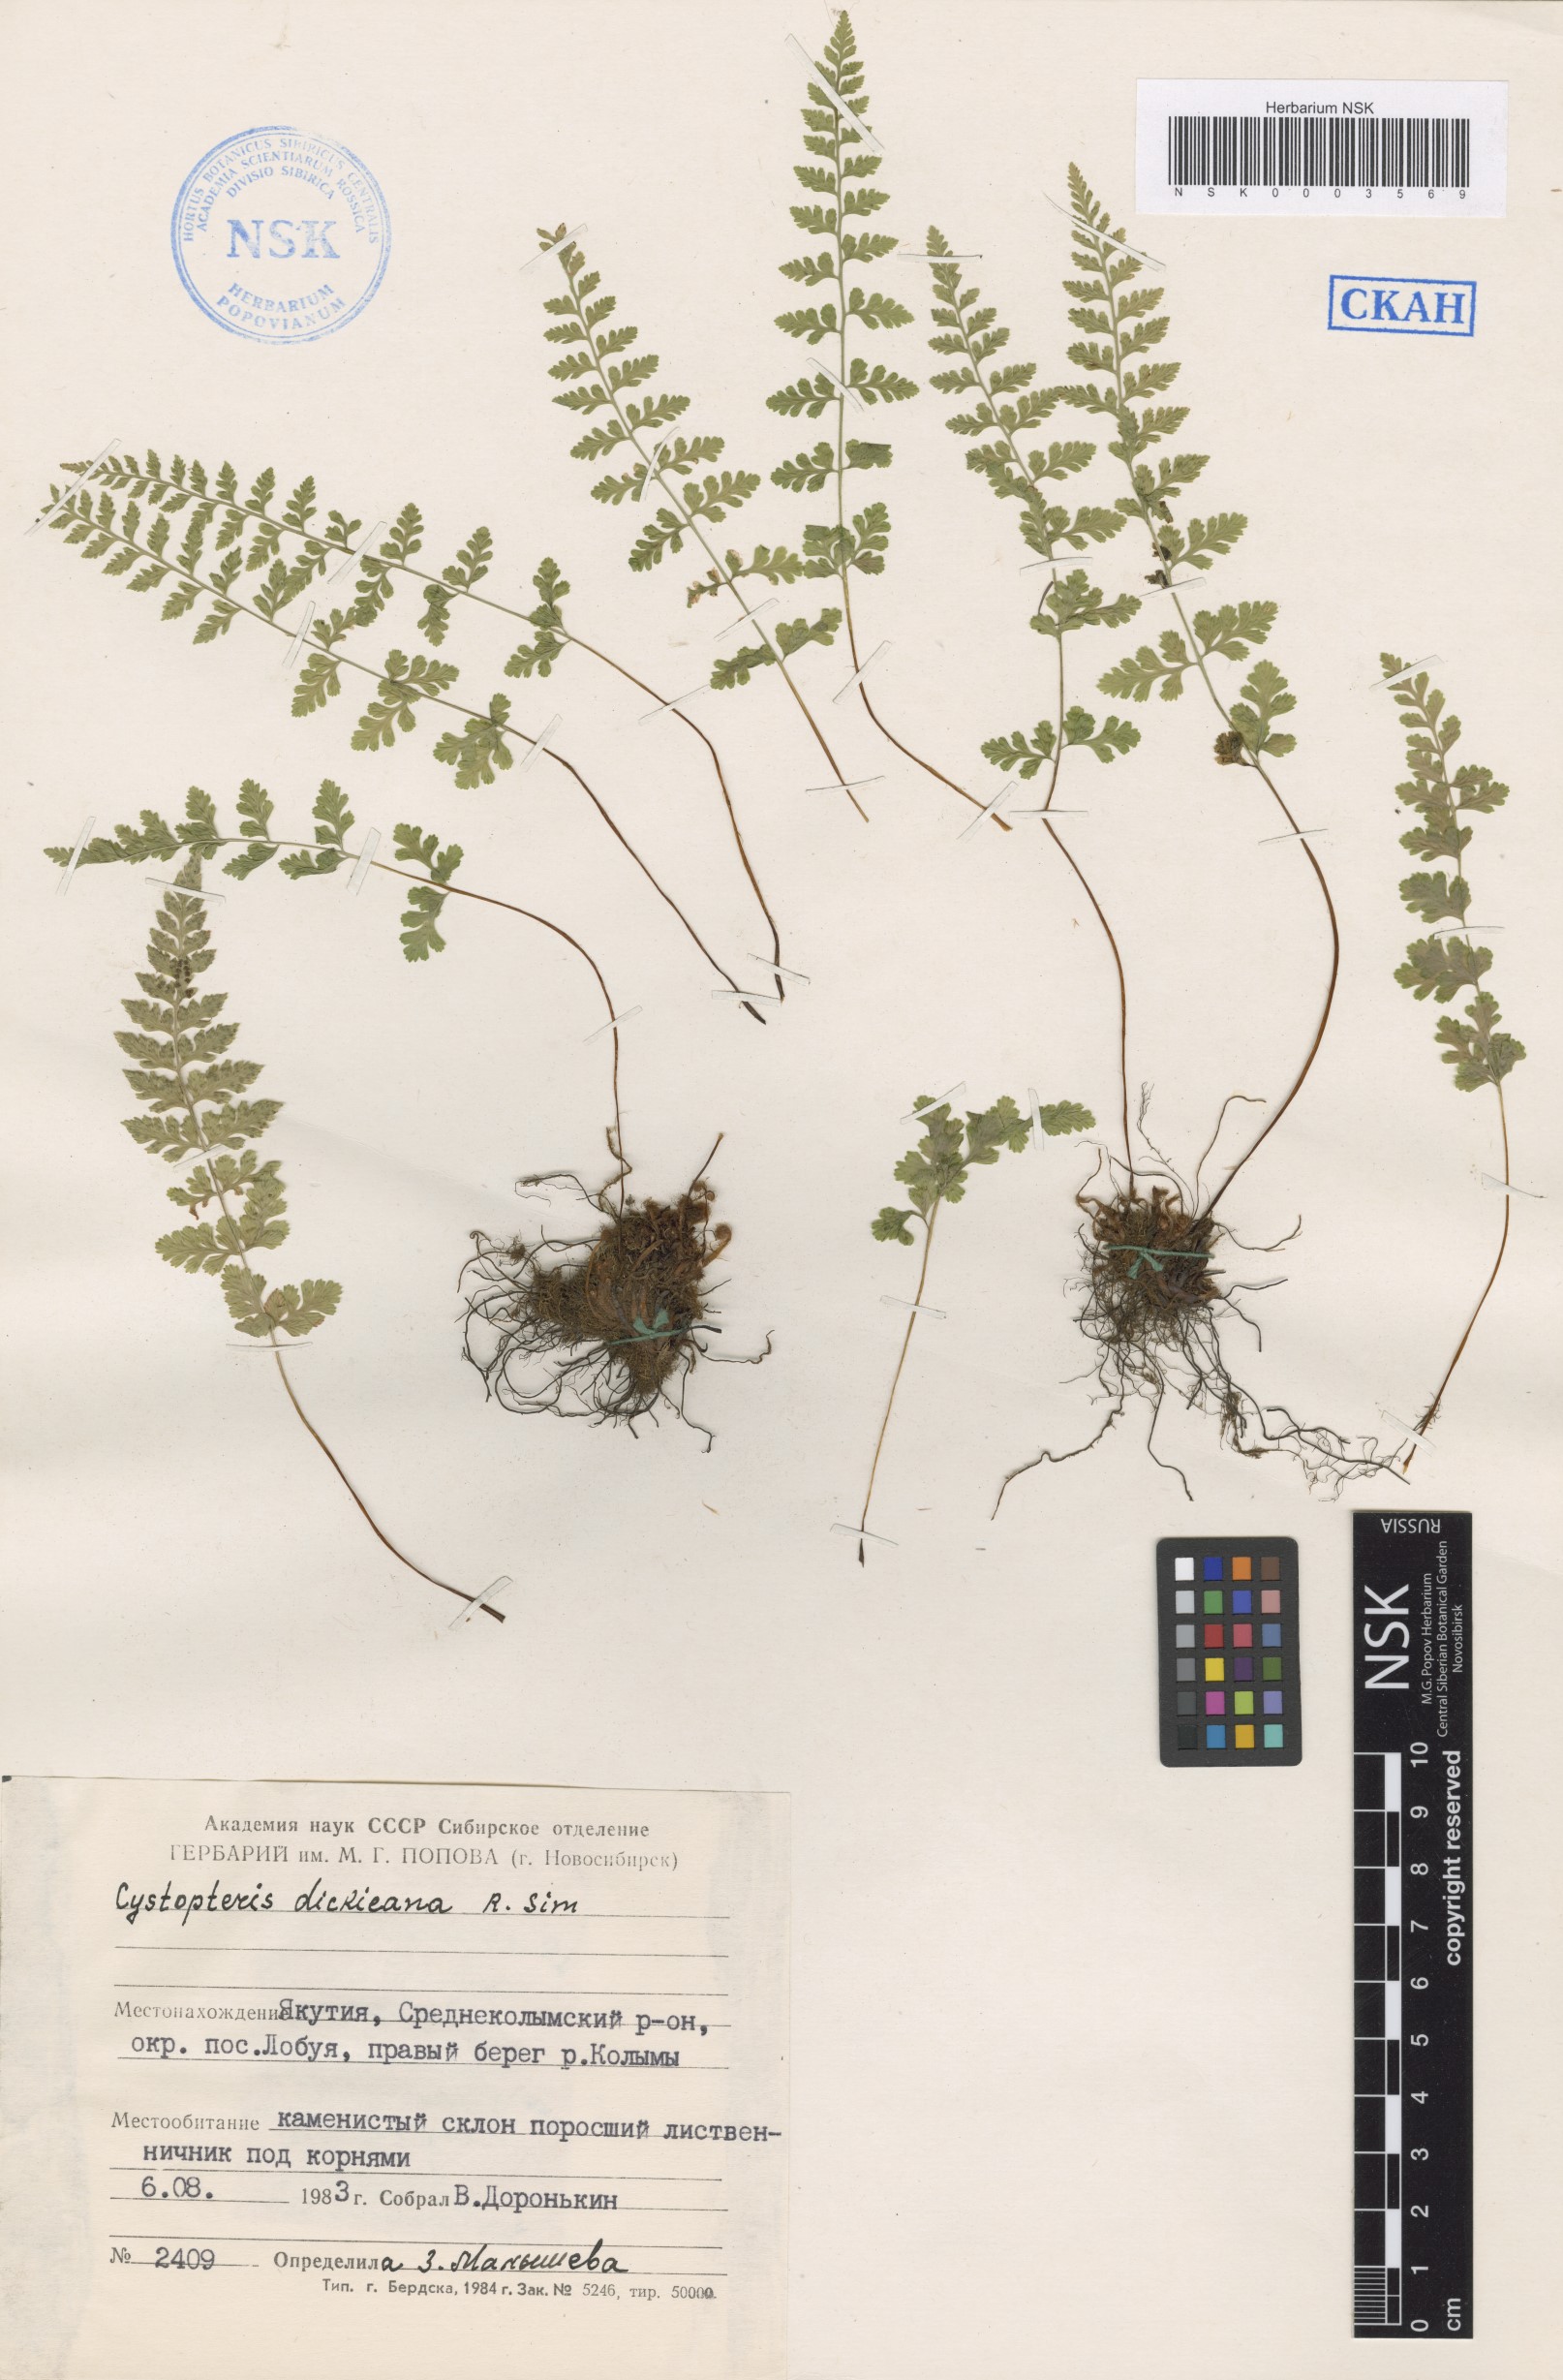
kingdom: Plantae
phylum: Tracheophyta
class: Polypodiopsida
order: Polypodiales
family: Cystopteridaceae
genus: Cystopteris
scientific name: Cystopteris dickieana
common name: Dickie's bladder-fern
